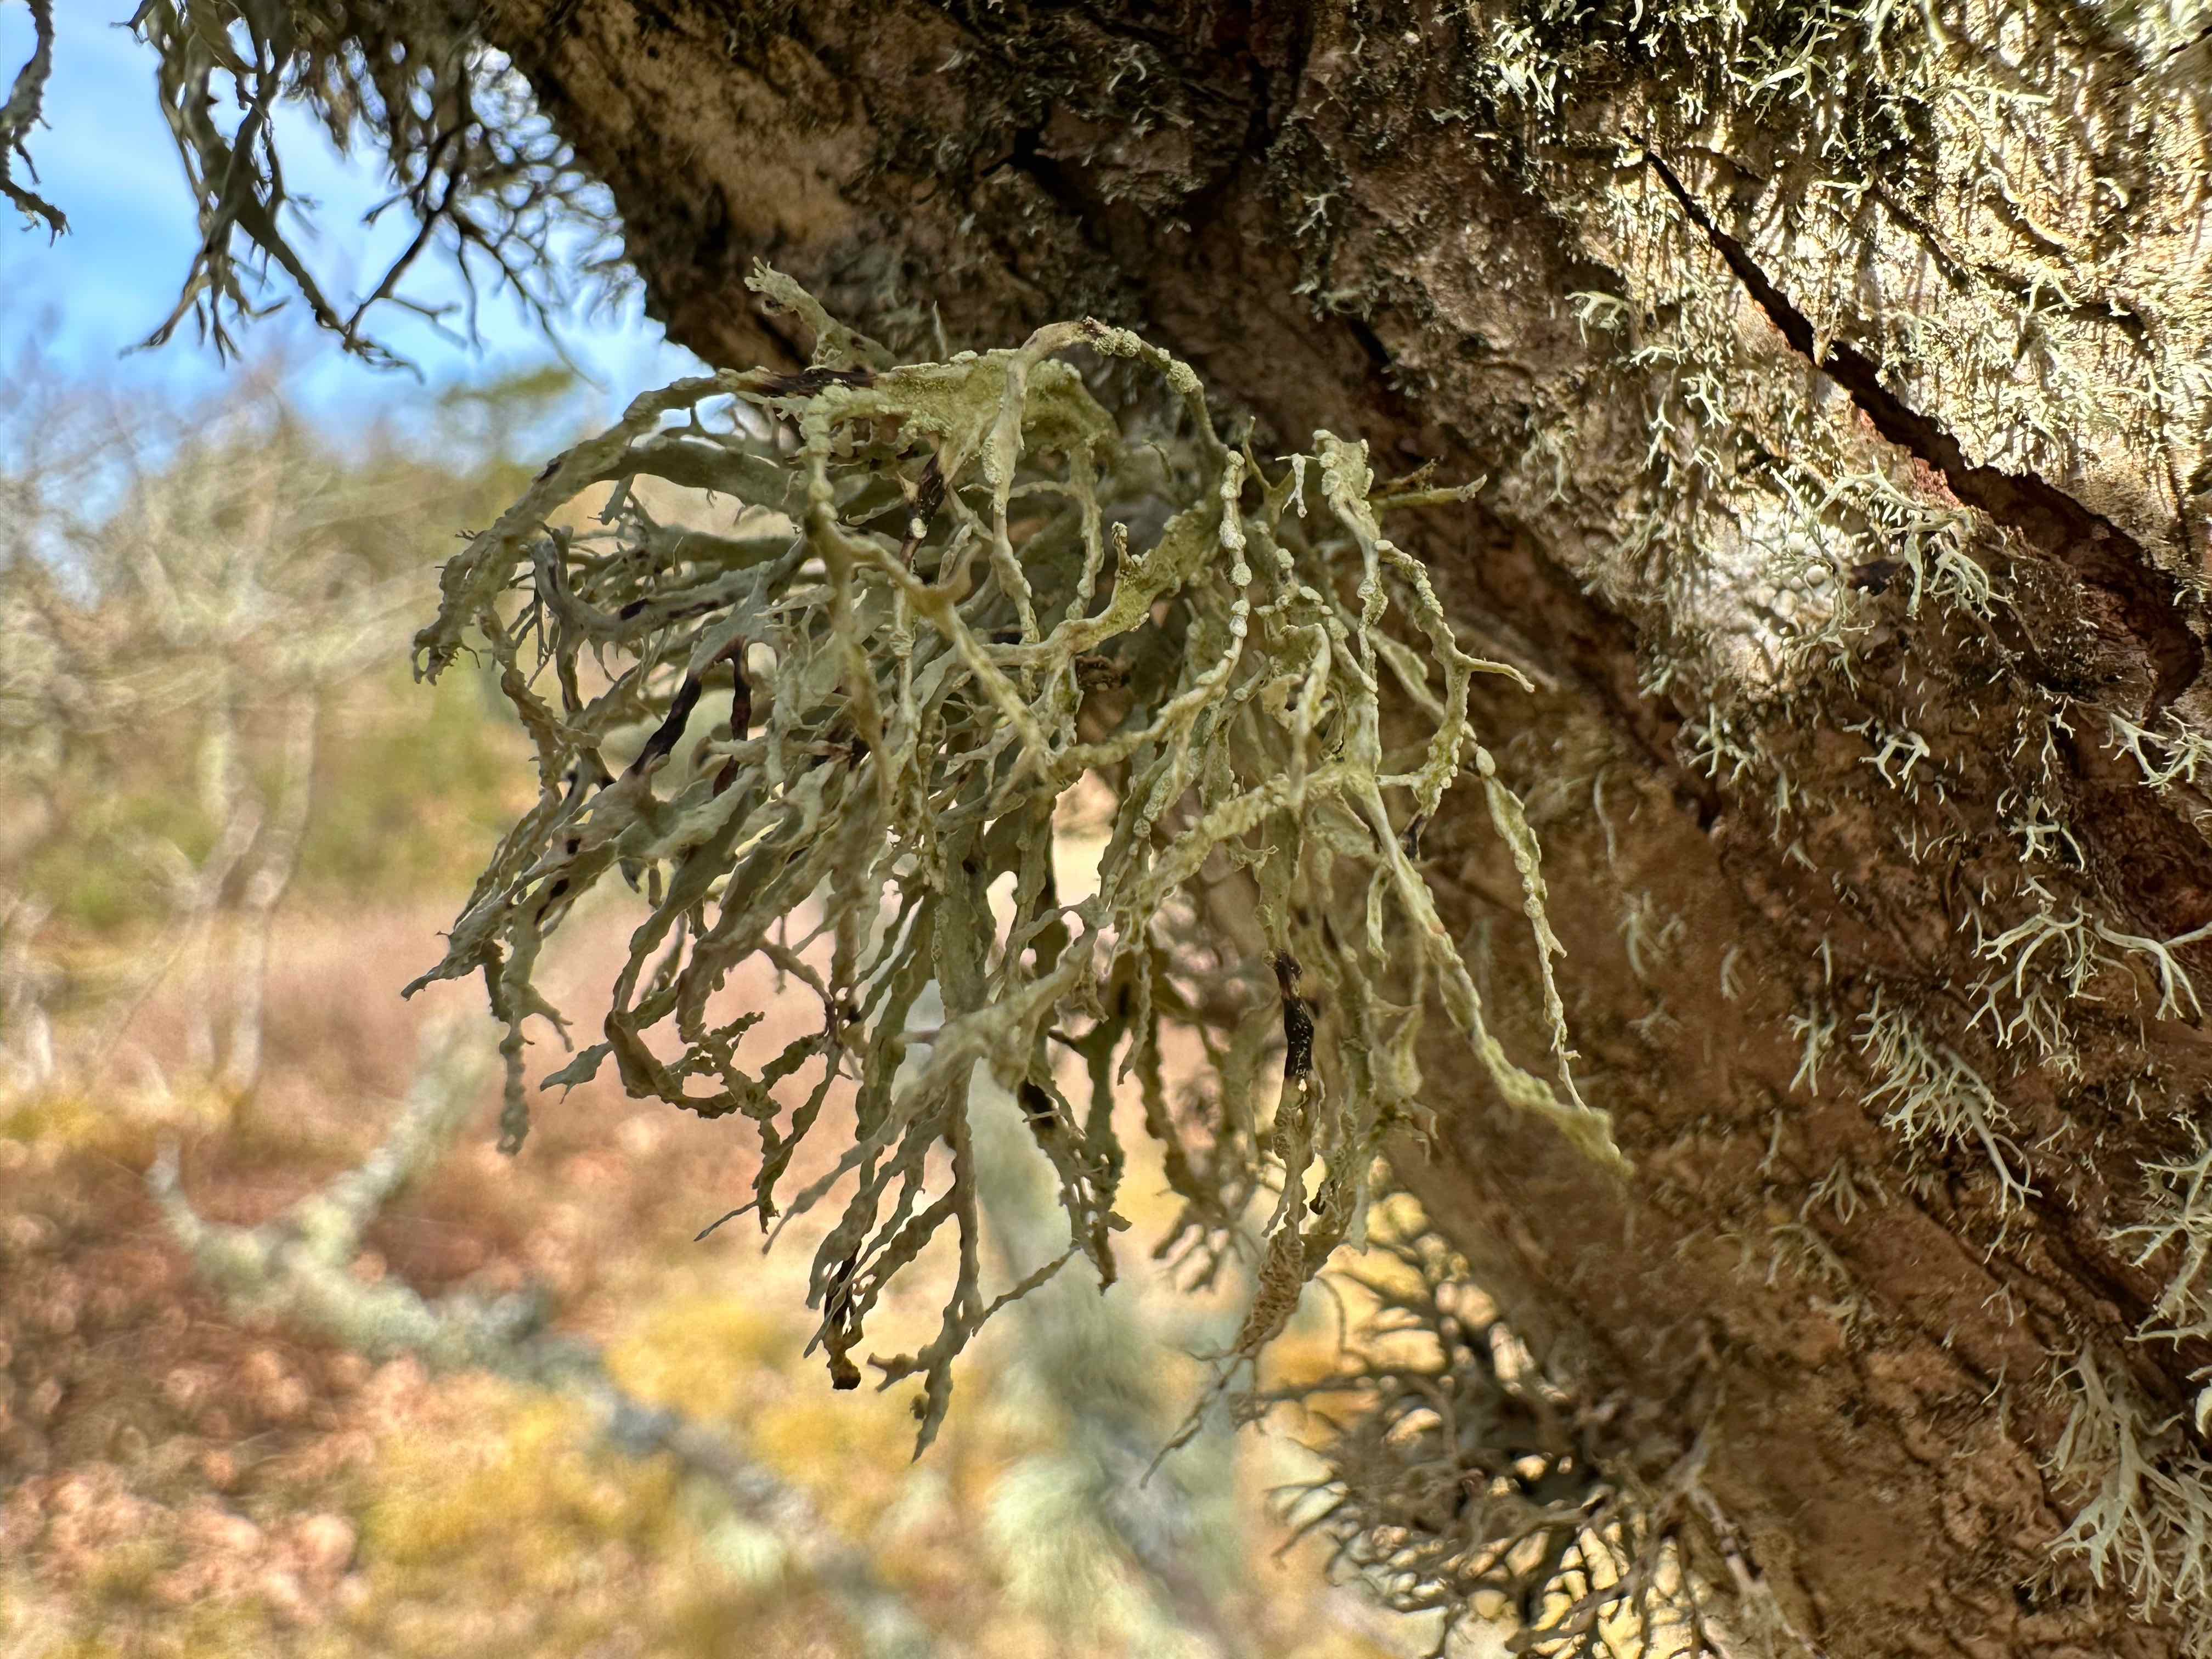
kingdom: Fungi
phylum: Ascomycota
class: Lecanoromycetes
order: Lecanorales
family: Ramalinaceae
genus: Ramalina
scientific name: Ramalina farinacea
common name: melet grenlav
